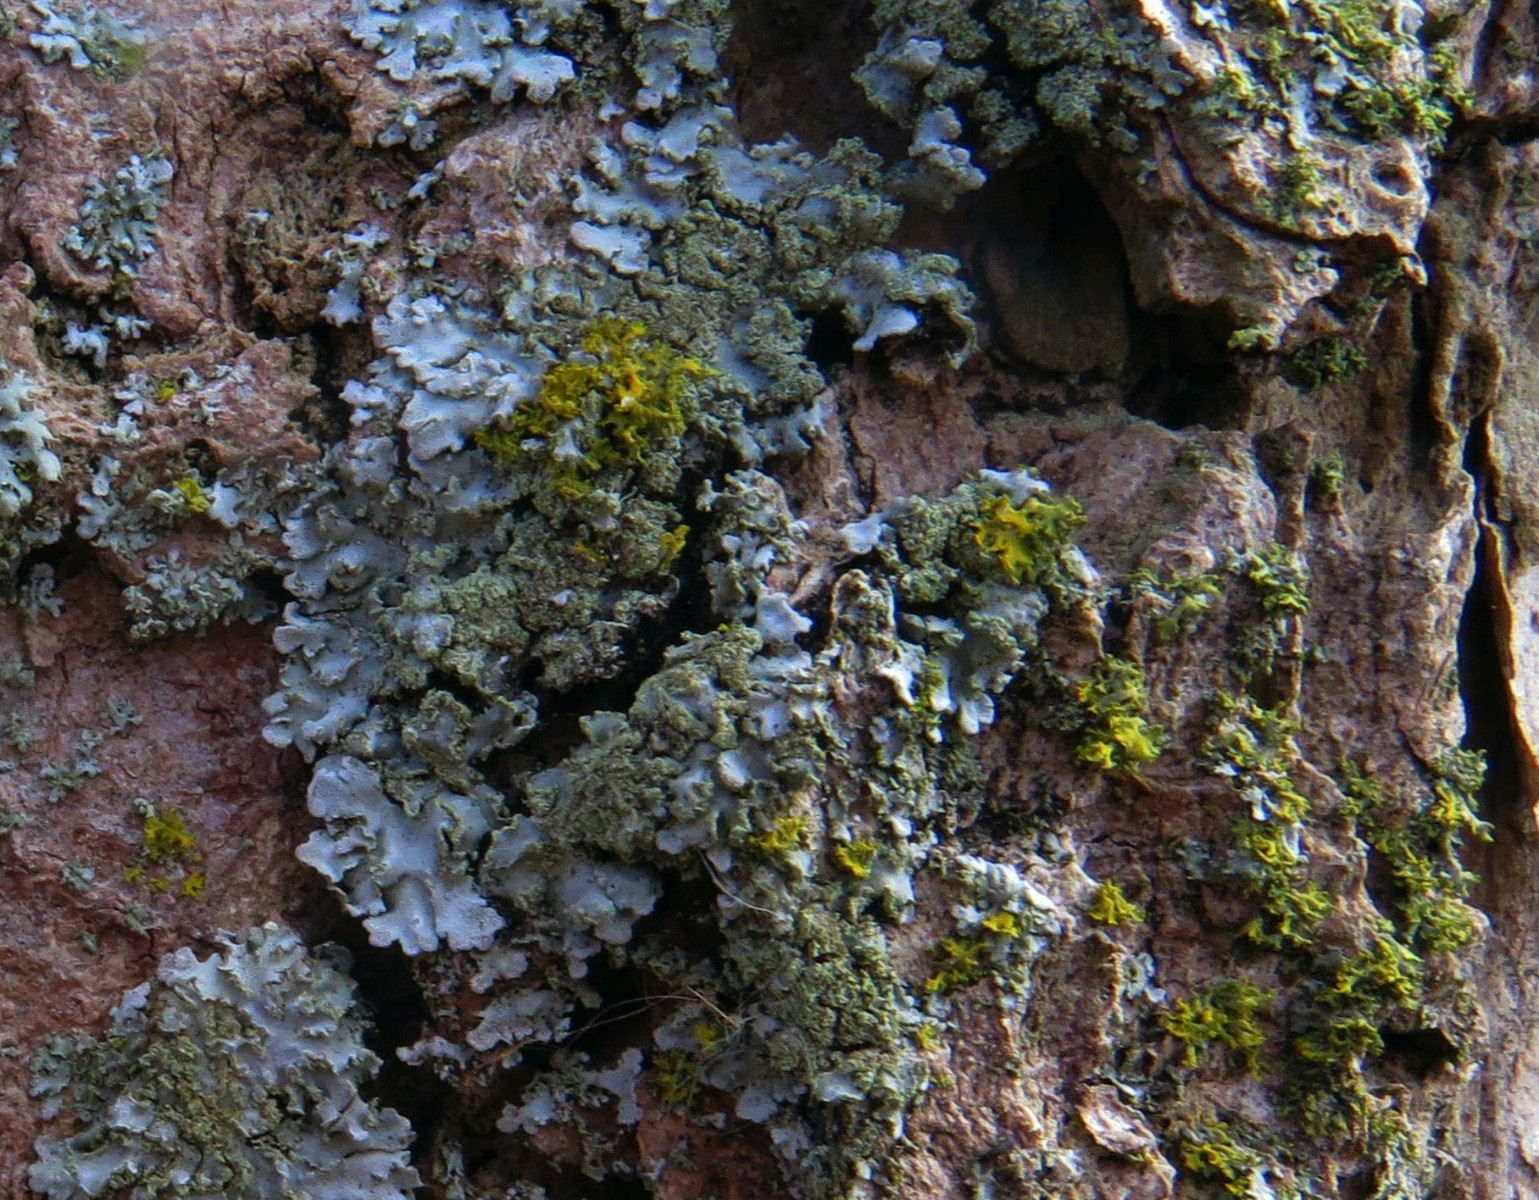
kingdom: Fungi
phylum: Ascomycota
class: Lecanoromycetes
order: Teloschistales
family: Teloschistaceae
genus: Polycauliona
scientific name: Polycauliona candelaria
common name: tue-orangelav
